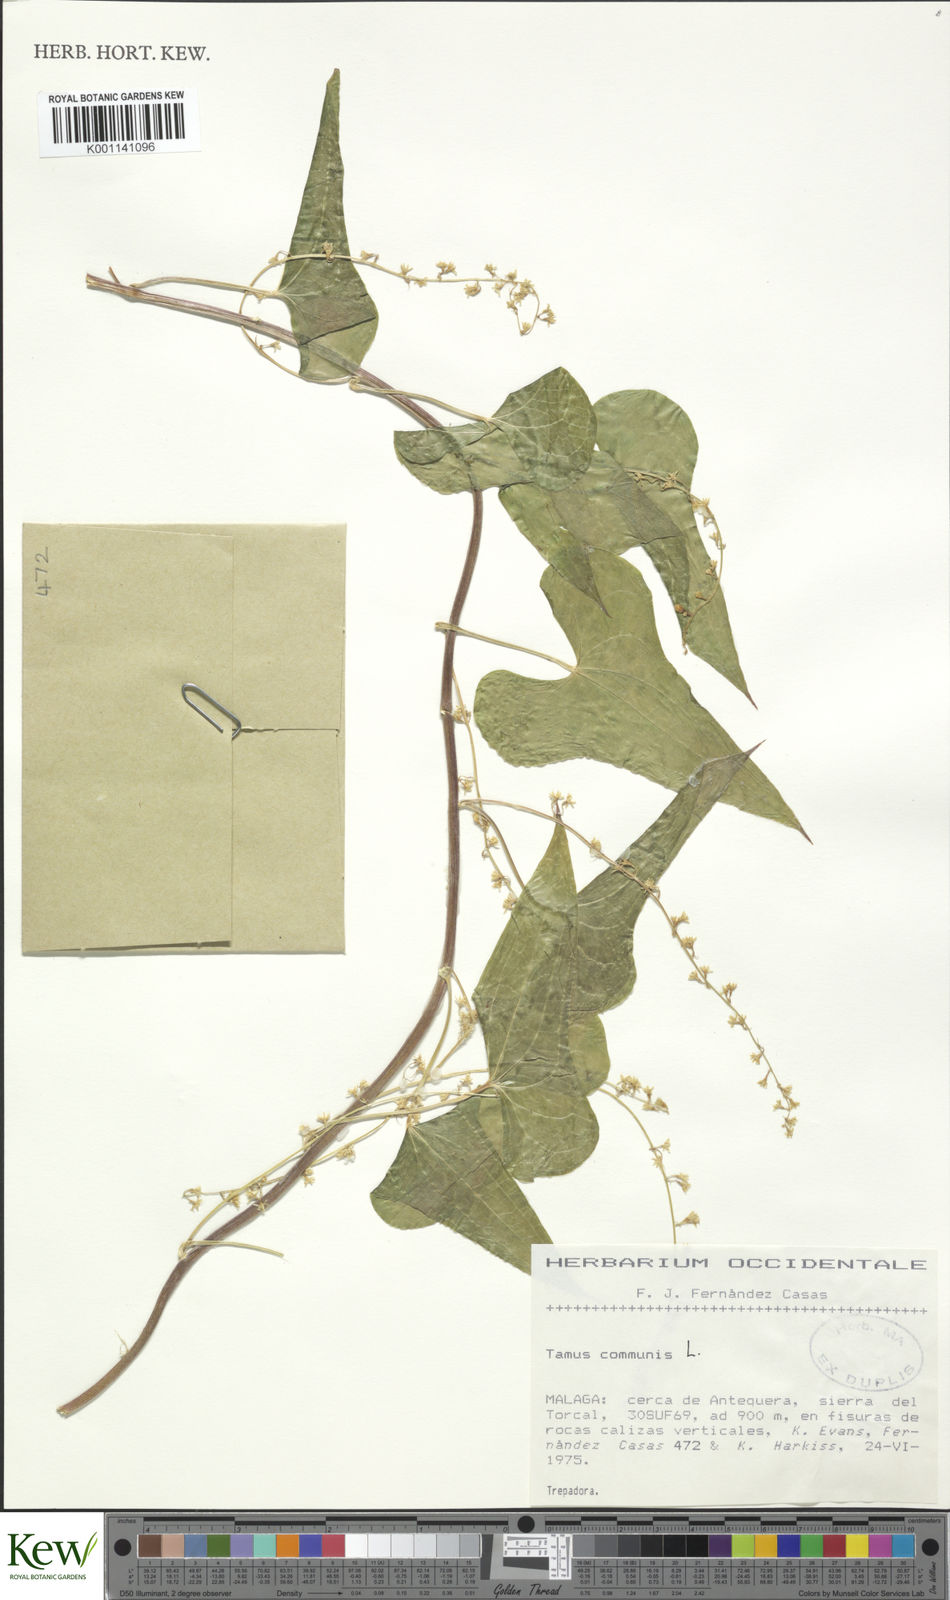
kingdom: Plantae
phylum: Tracheophyta
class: Liliopsida
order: Dioscoreales
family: Dioscoreaceae
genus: Dioscorea
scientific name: Dioscorea communis
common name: Black-bindweed
